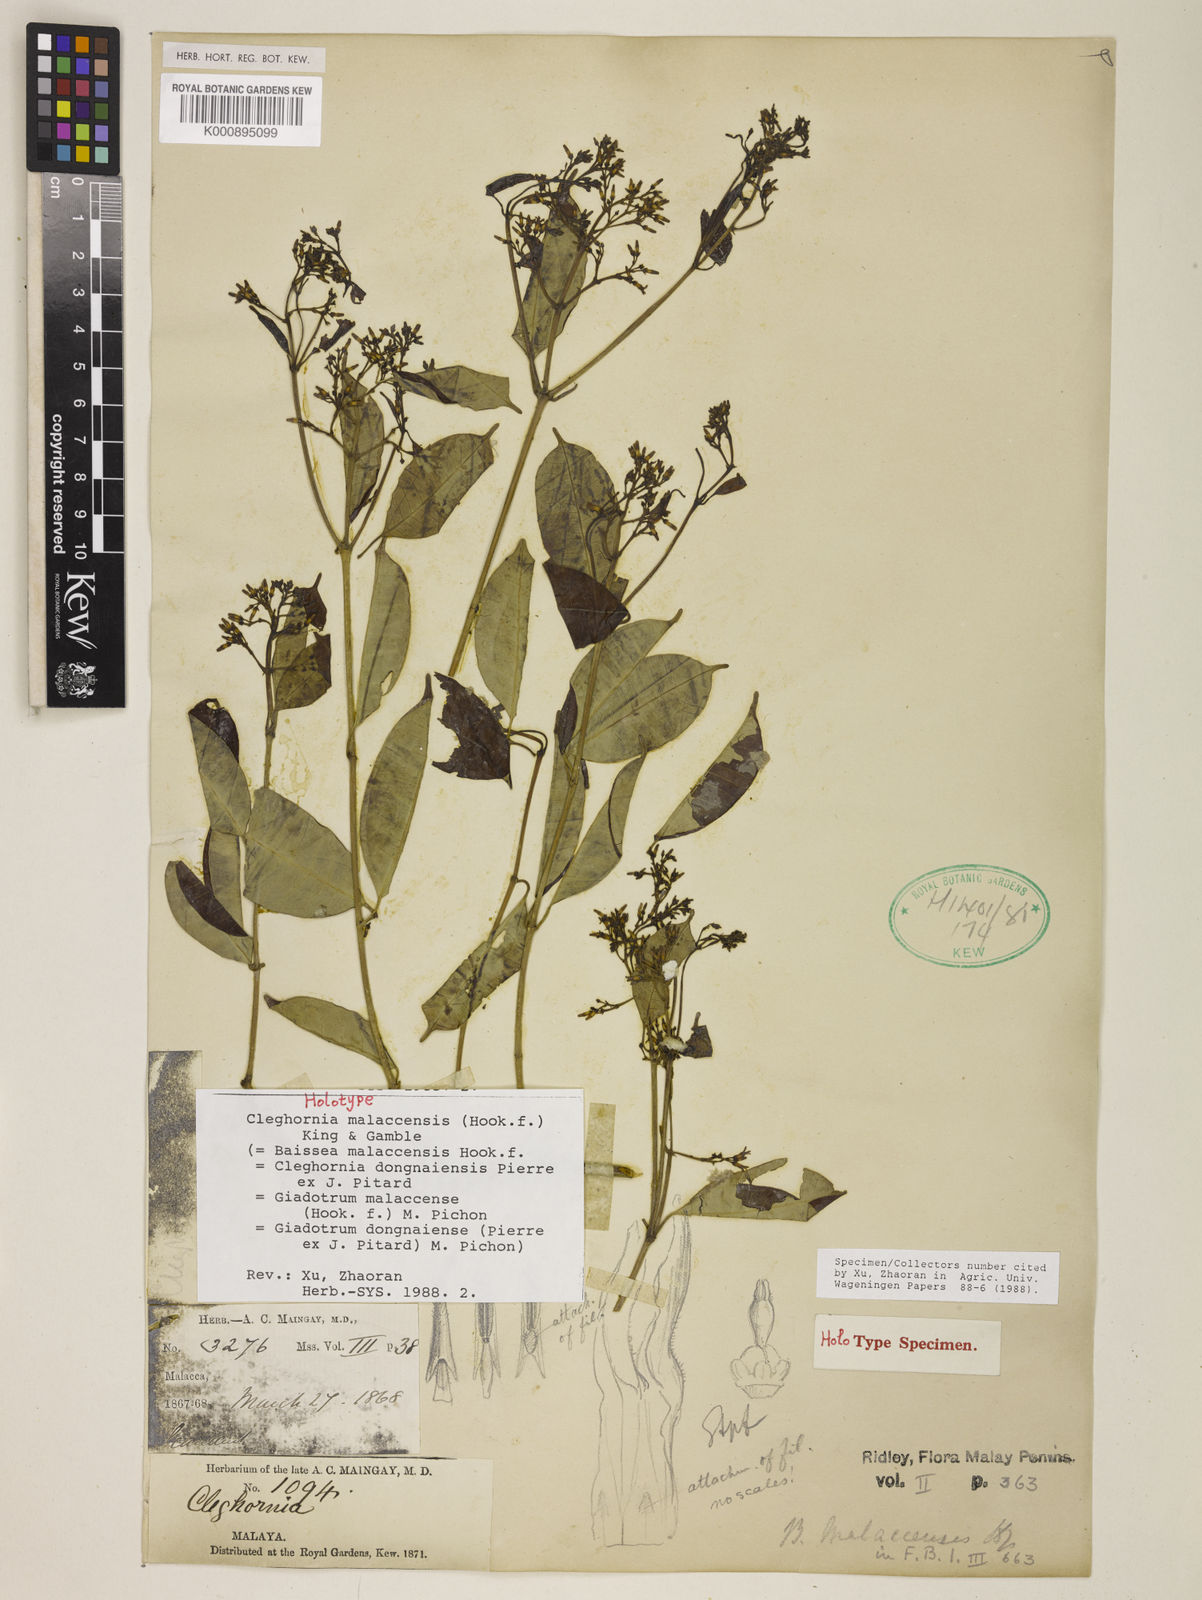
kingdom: Plantae
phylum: Tracheophyta
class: Magnoliopsida
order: Gentianales
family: Apocynaceae
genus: Cleghornia
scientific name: Cleghornia malaccensis
